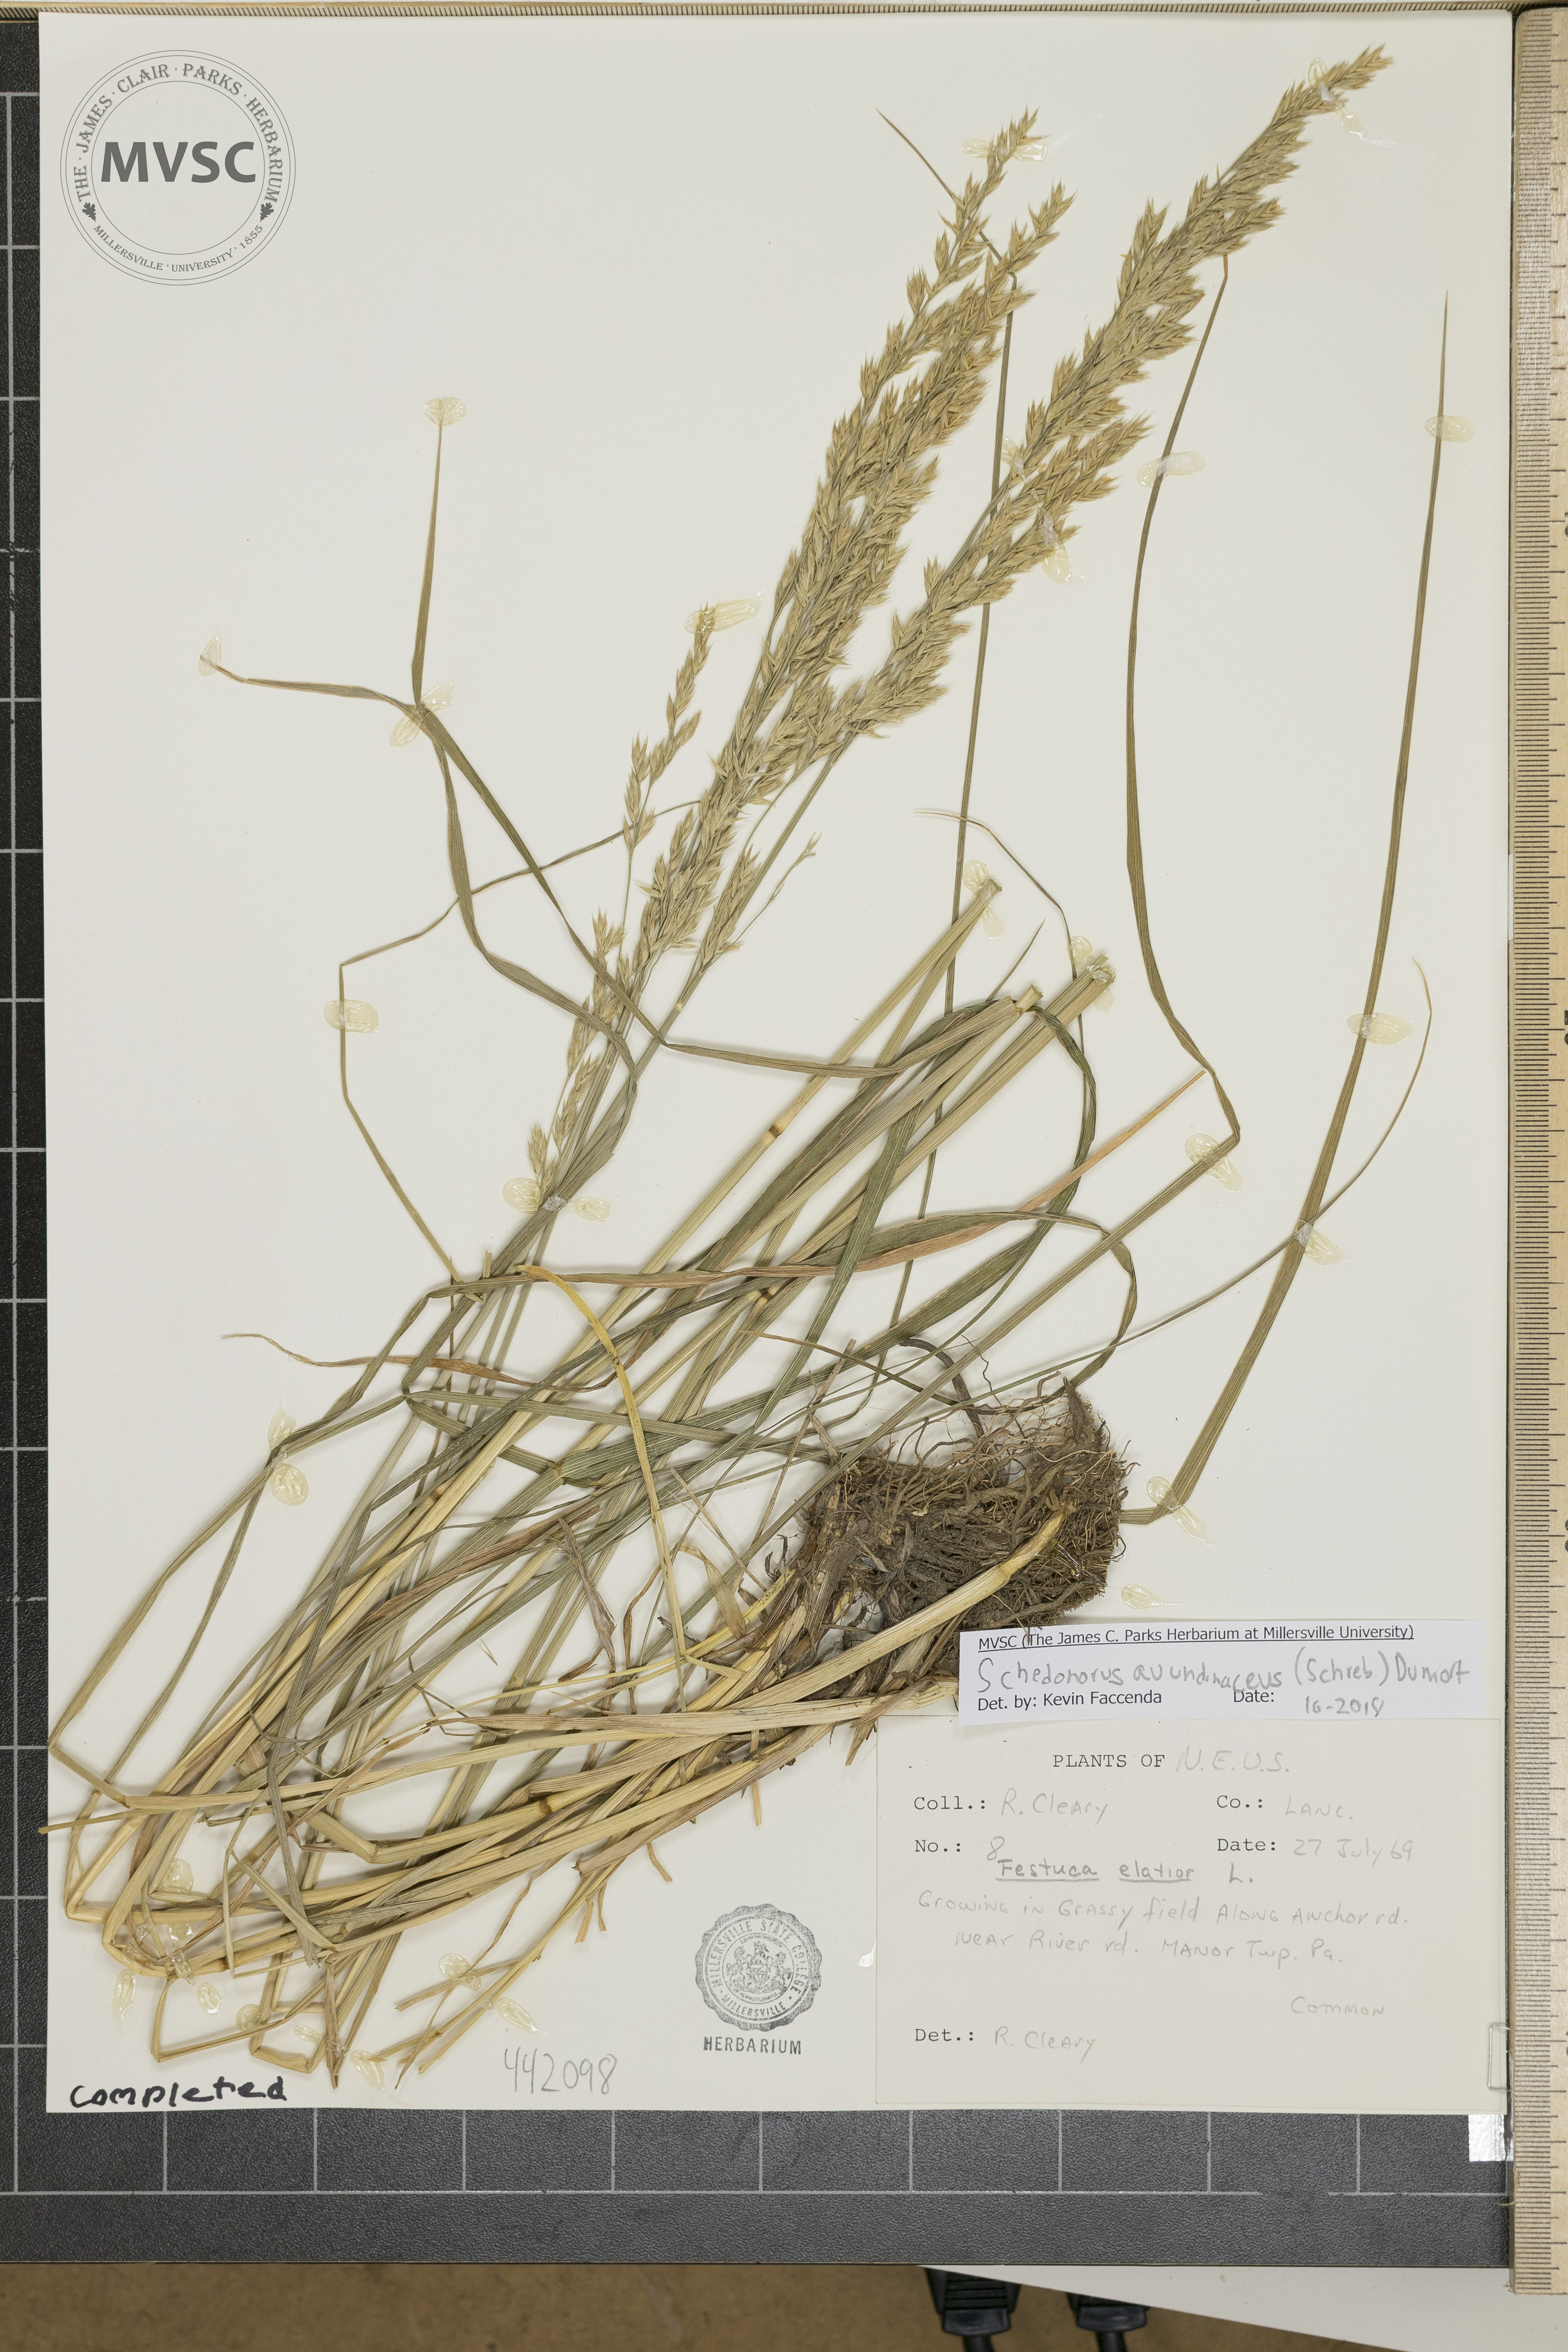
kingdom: Plantae
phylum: Tracheophyta
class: Liliopsida
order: Poales
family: Poaceae
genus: Lolium
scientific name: Lolium arundinaceum
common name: Reed fescue
